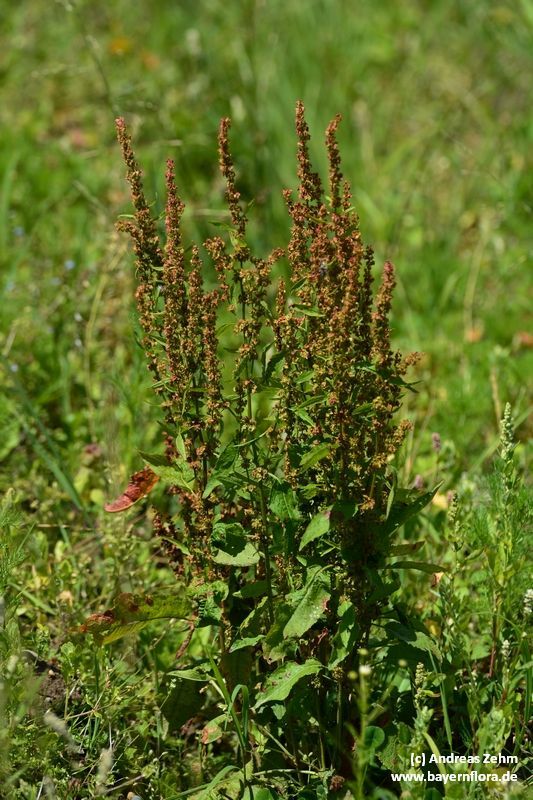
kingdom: Plantae
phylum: Tracheophyta
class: Magnoliopsida
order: Caryophyllales
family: Polygonaceae
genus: Rumex
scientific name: Rumex obtusifolius
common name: Bitter dock
